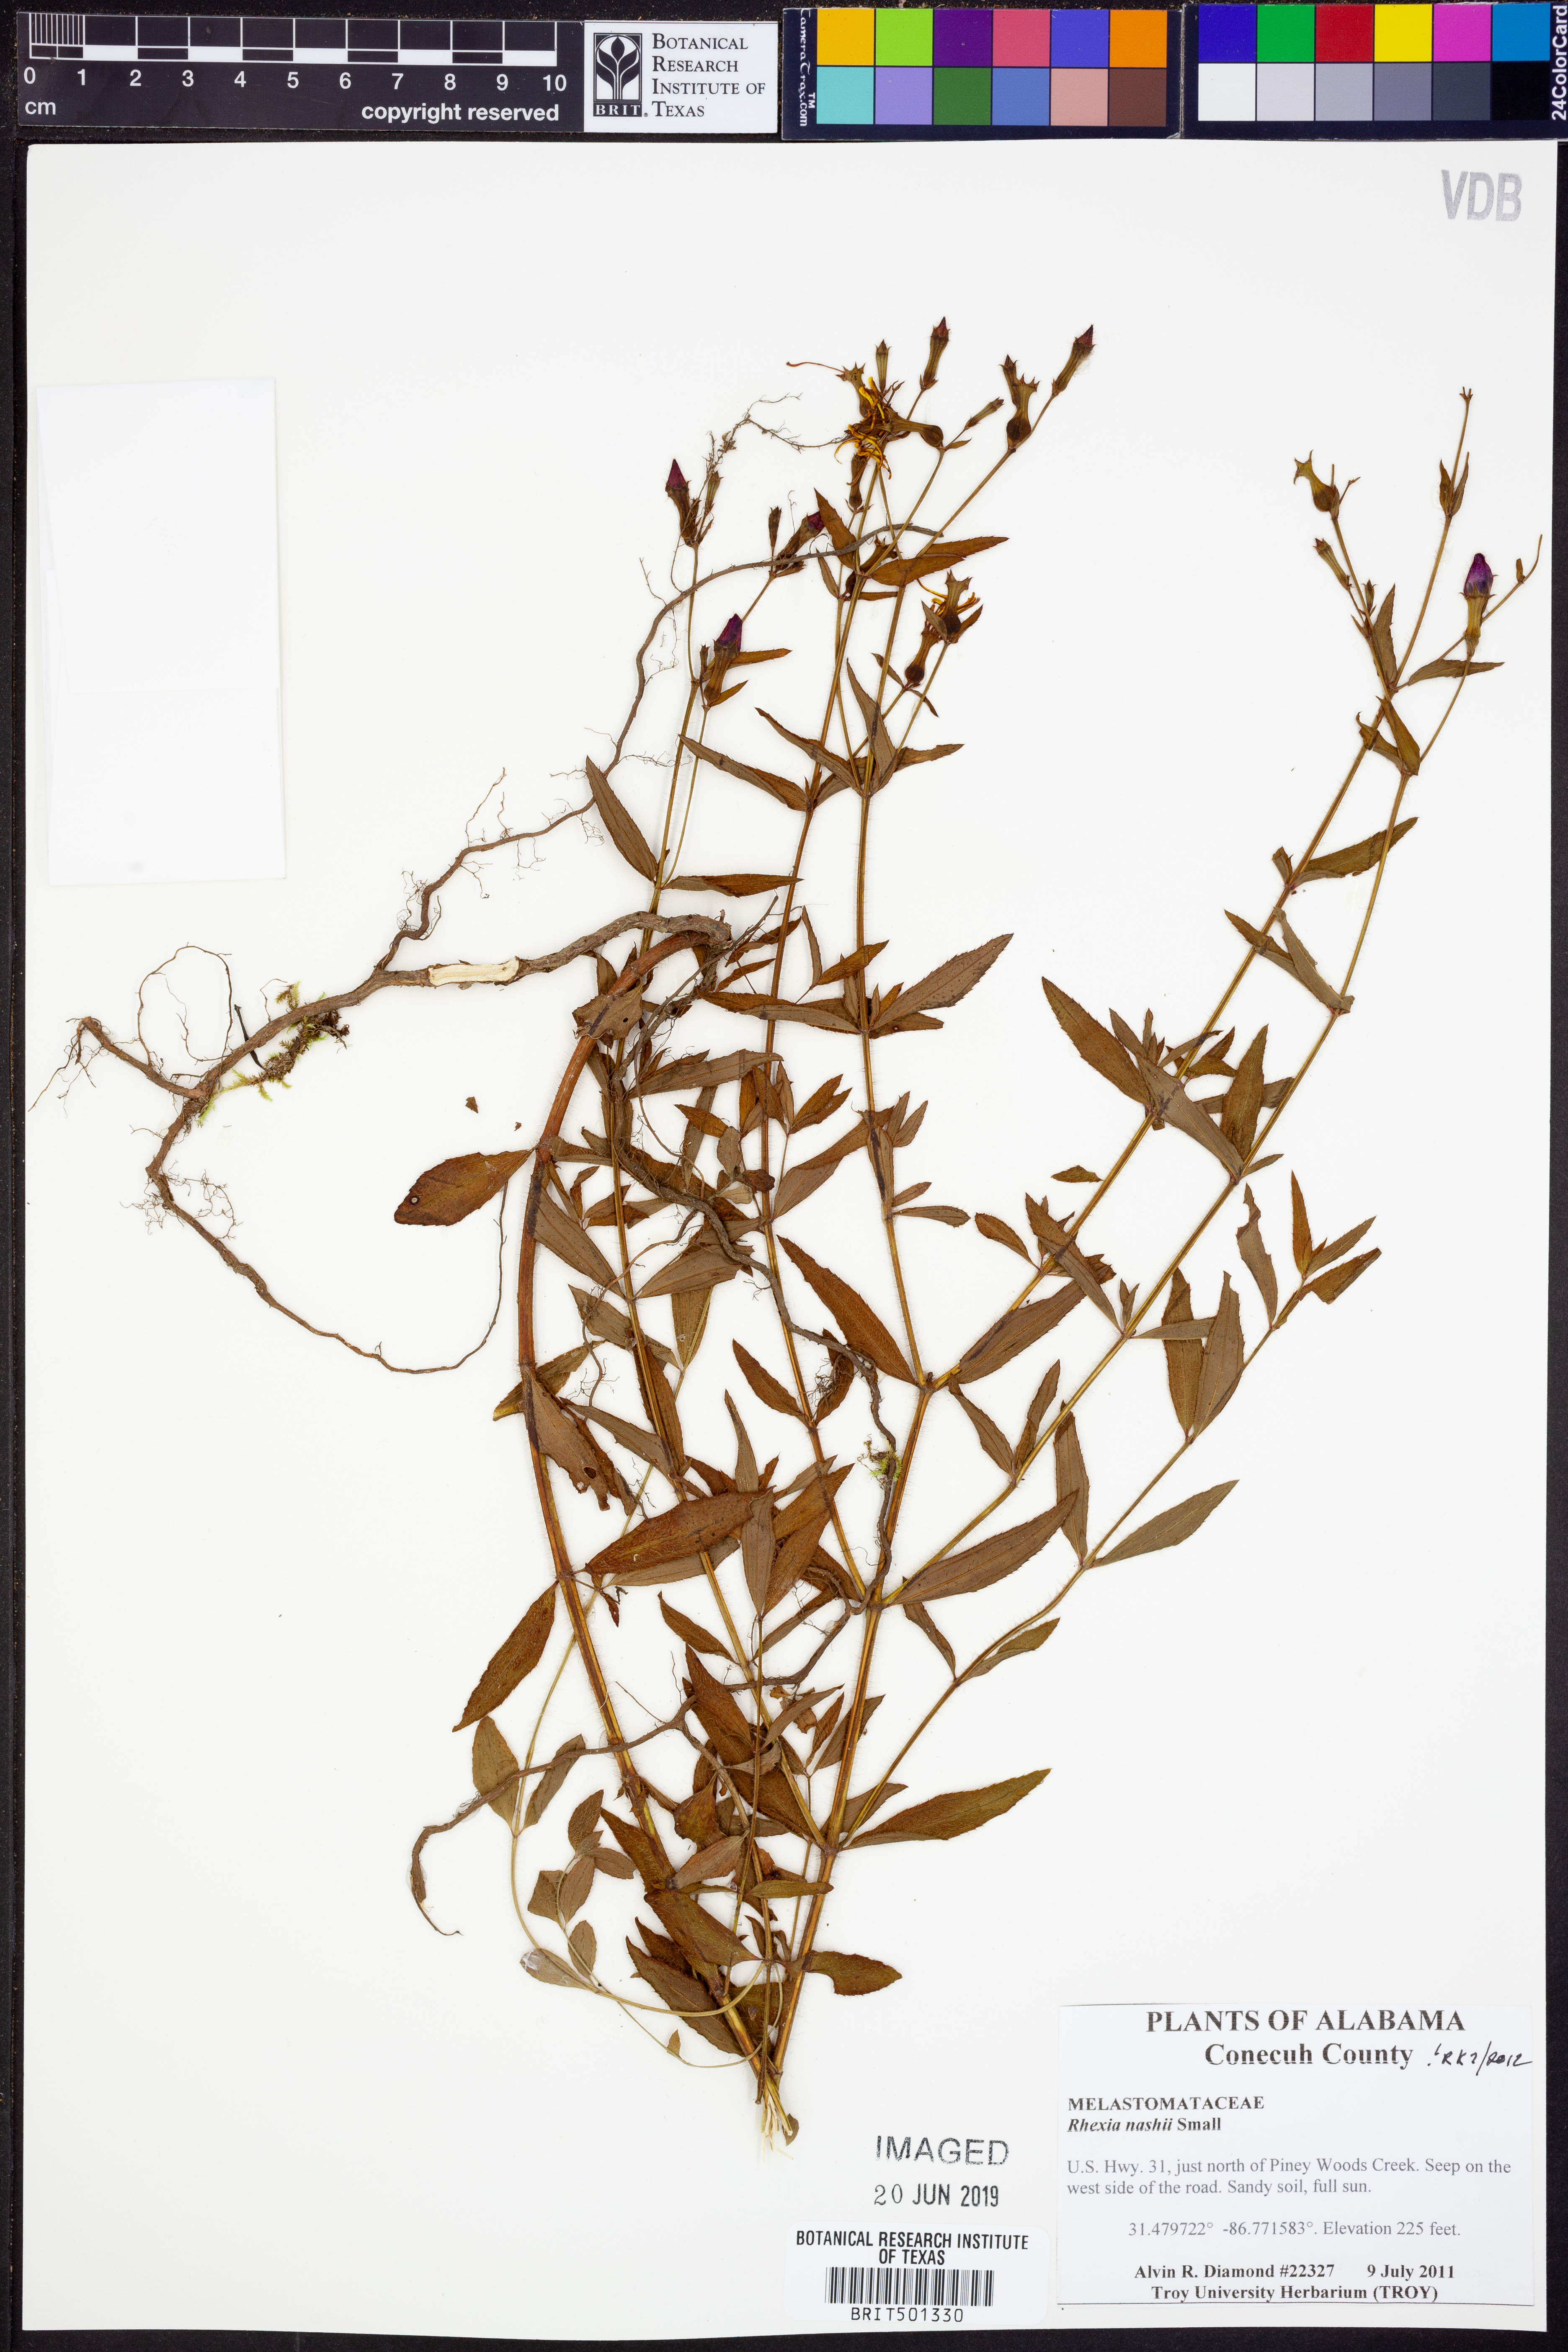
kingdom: Plantae
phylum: Tracheophyta
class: Magnoliopsida
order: Myrtales
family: Melastomataceae
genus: Rhexia
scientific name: Rhexia nashii
